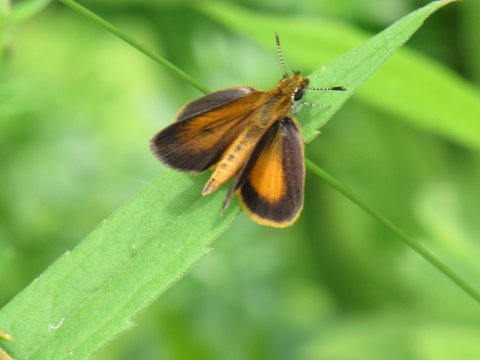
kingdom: Animalia
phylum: Arthropoda
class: Insecta
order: Lepidoptera
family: Hesperiidae
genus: Ancyloxypha
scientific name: Ancyloxypha numitor
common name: Least Skipper
